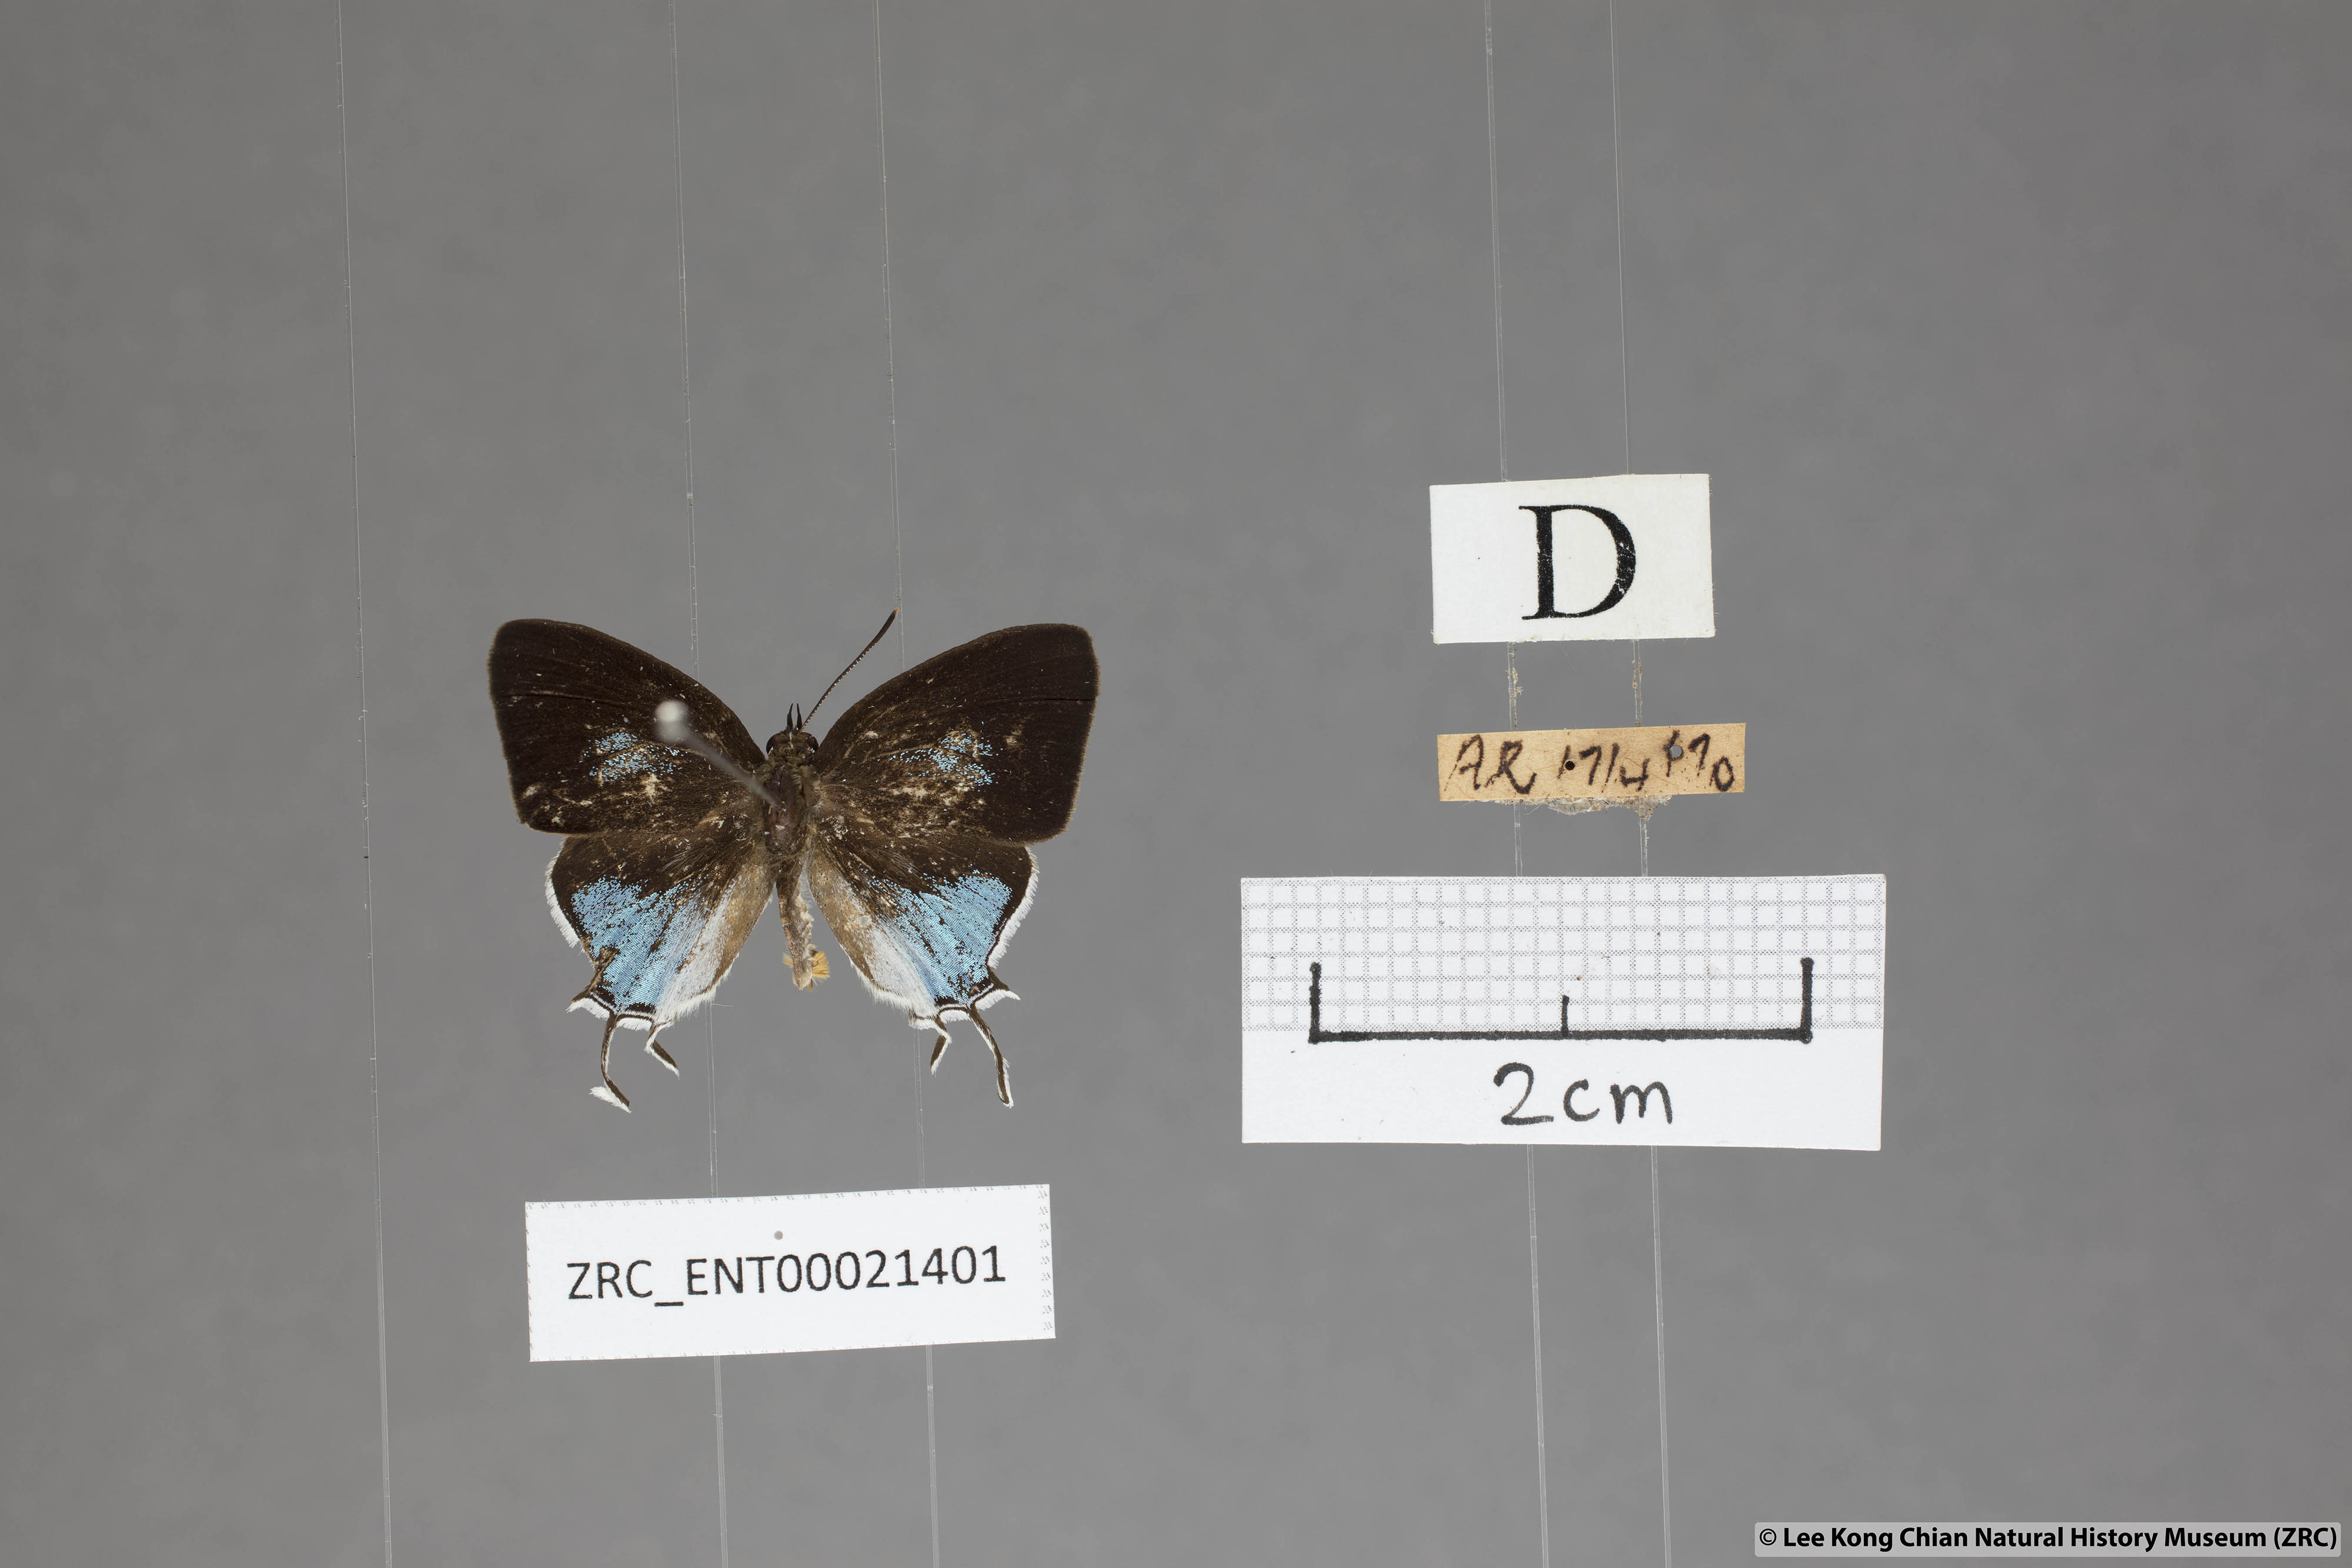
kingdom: Animalia
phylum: Arthropoda
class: Insecta
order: Lepidoptera
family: Lycaenidae
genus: Drupadia
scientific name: Drupadia scaeva
